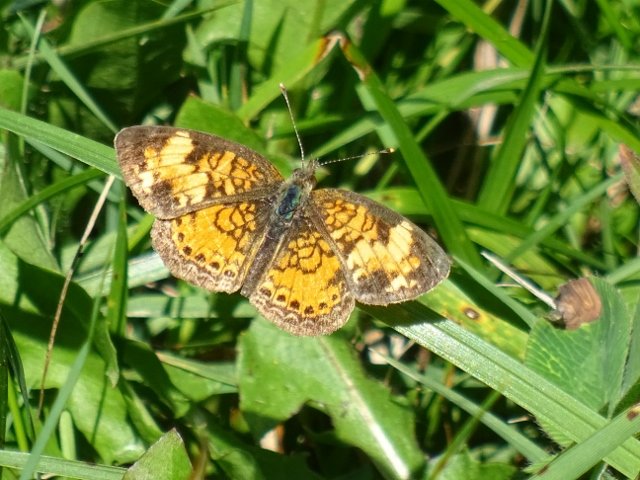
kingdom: Animalia
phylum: Arthropoda
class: Insecta
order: Lepidoptera
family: Nymphalidae
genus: Phyciodes
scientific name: Phyciodes
